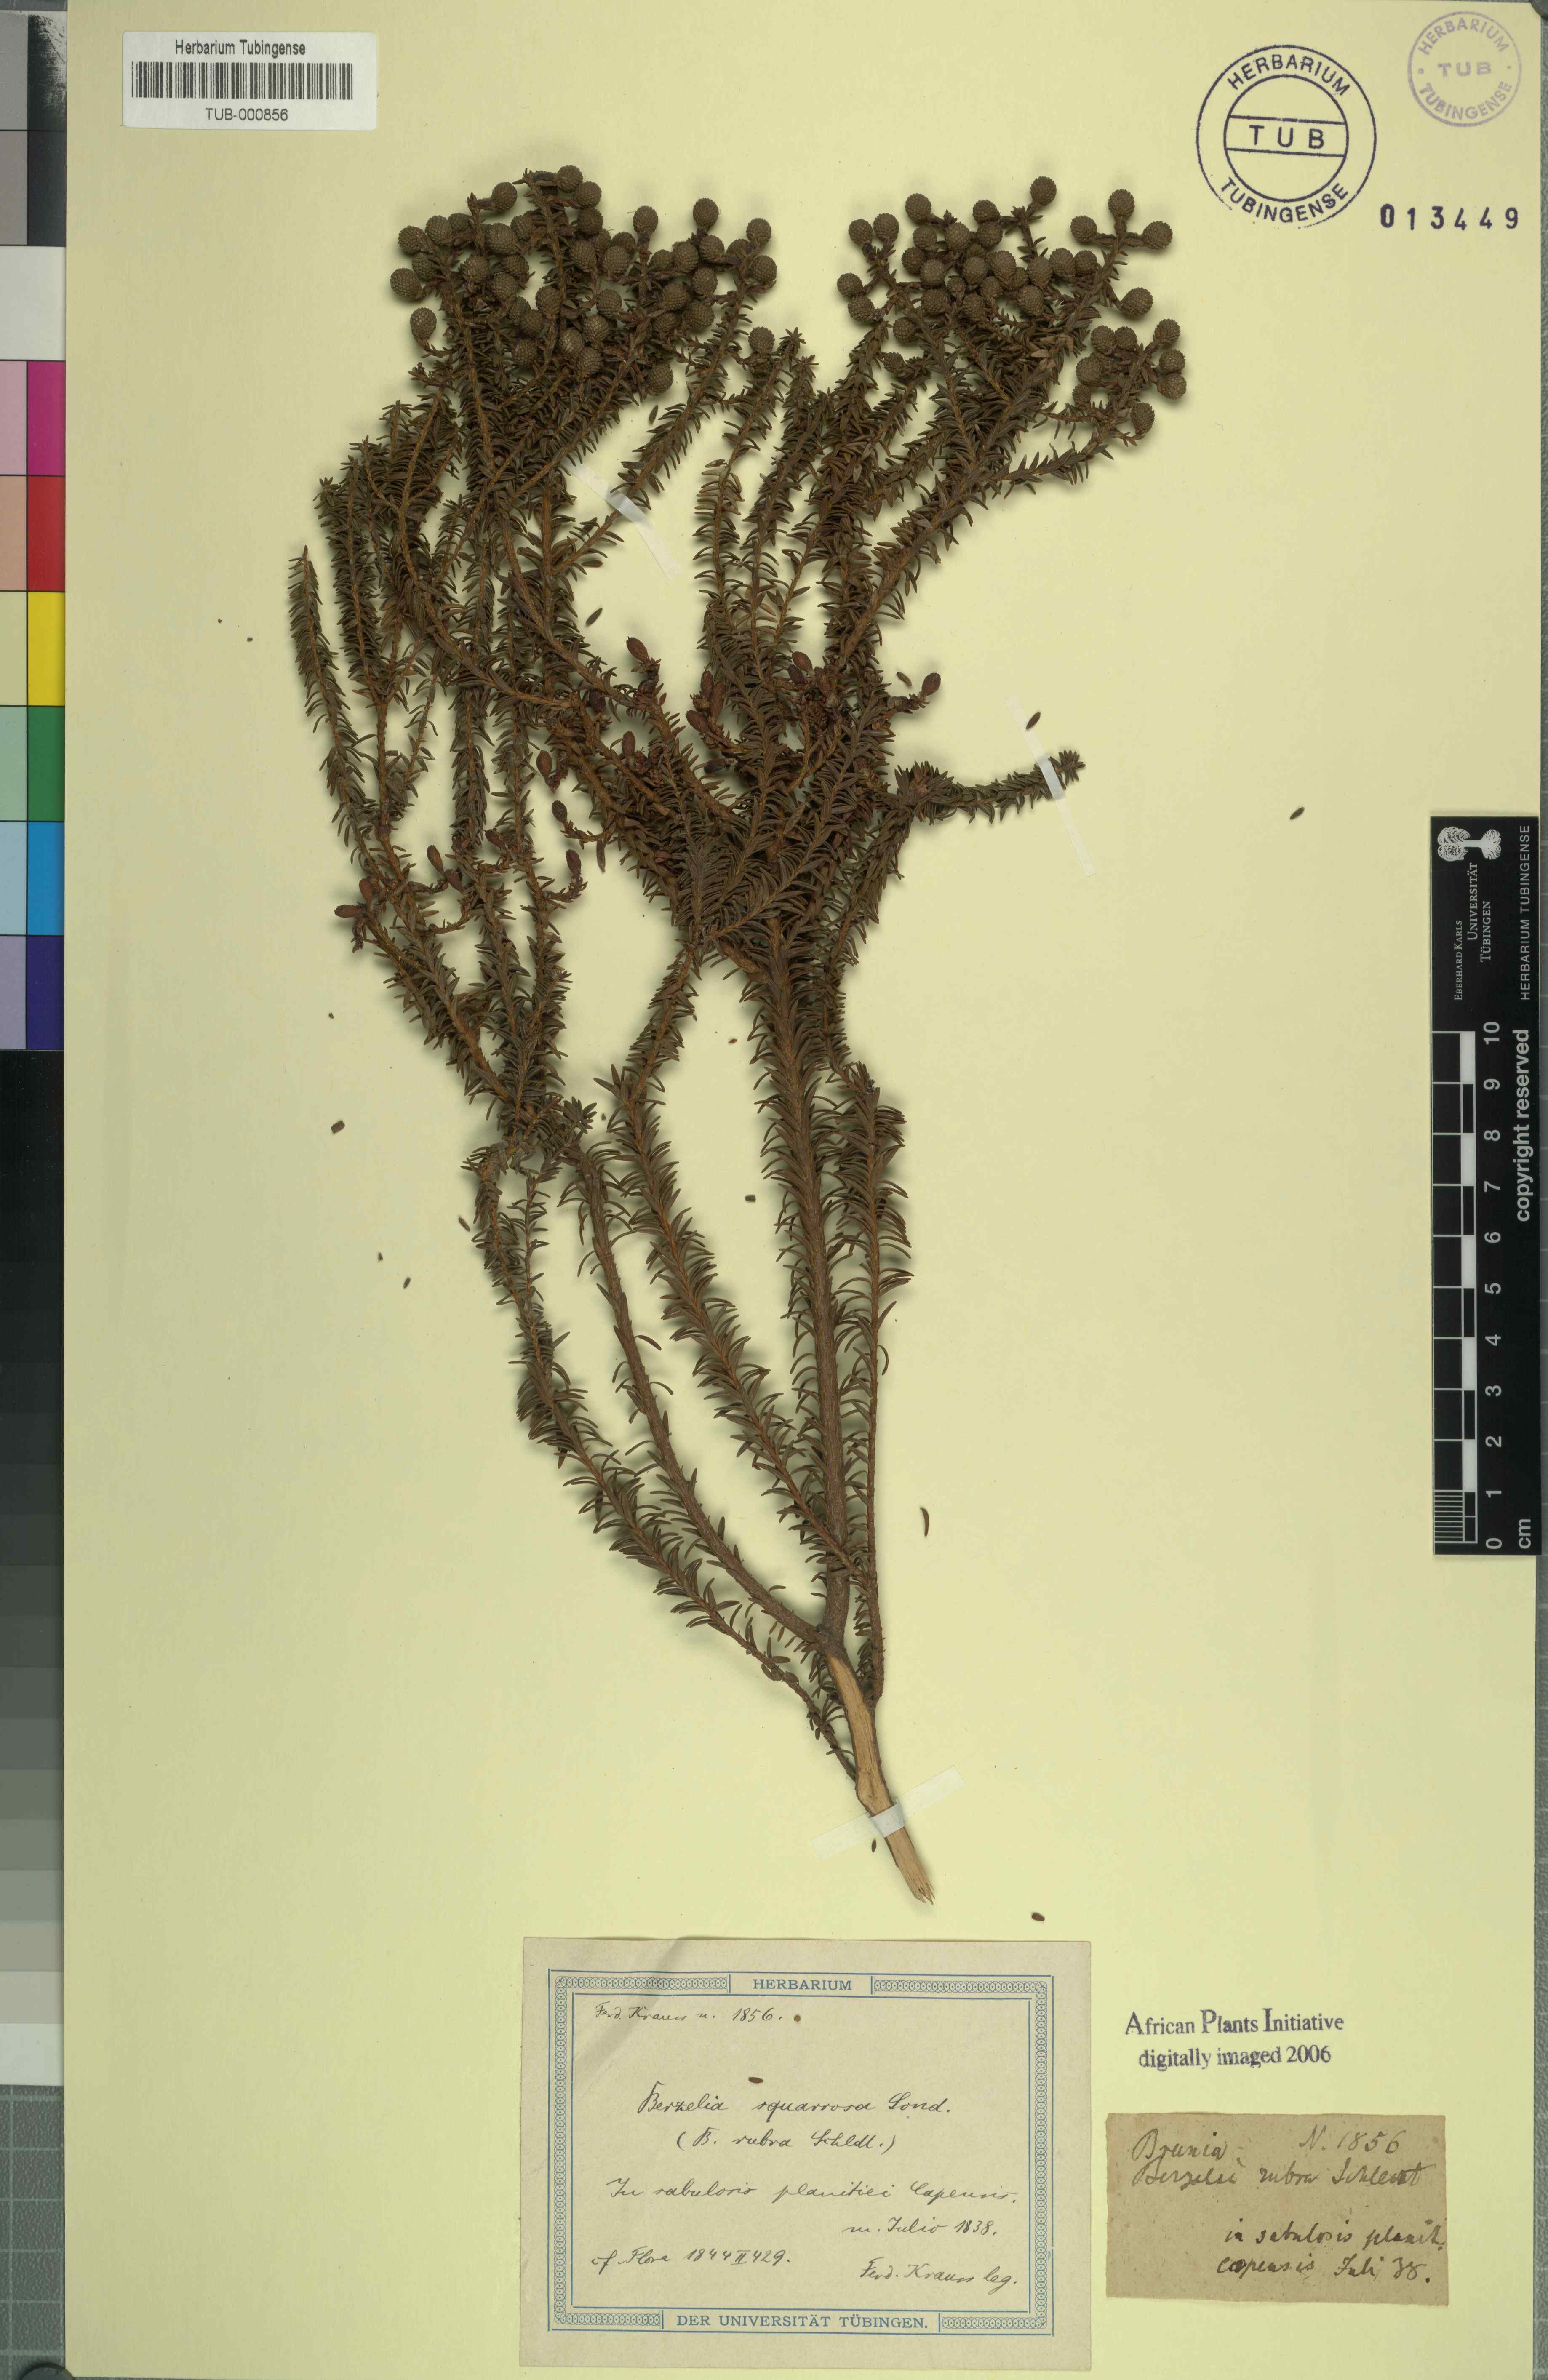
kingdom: Plantae
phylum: Tracheophyta
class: Magnoliopsida
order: Bruniales
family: Bruniaceae
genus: Berzelia
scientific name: Berzelia squarrosa
